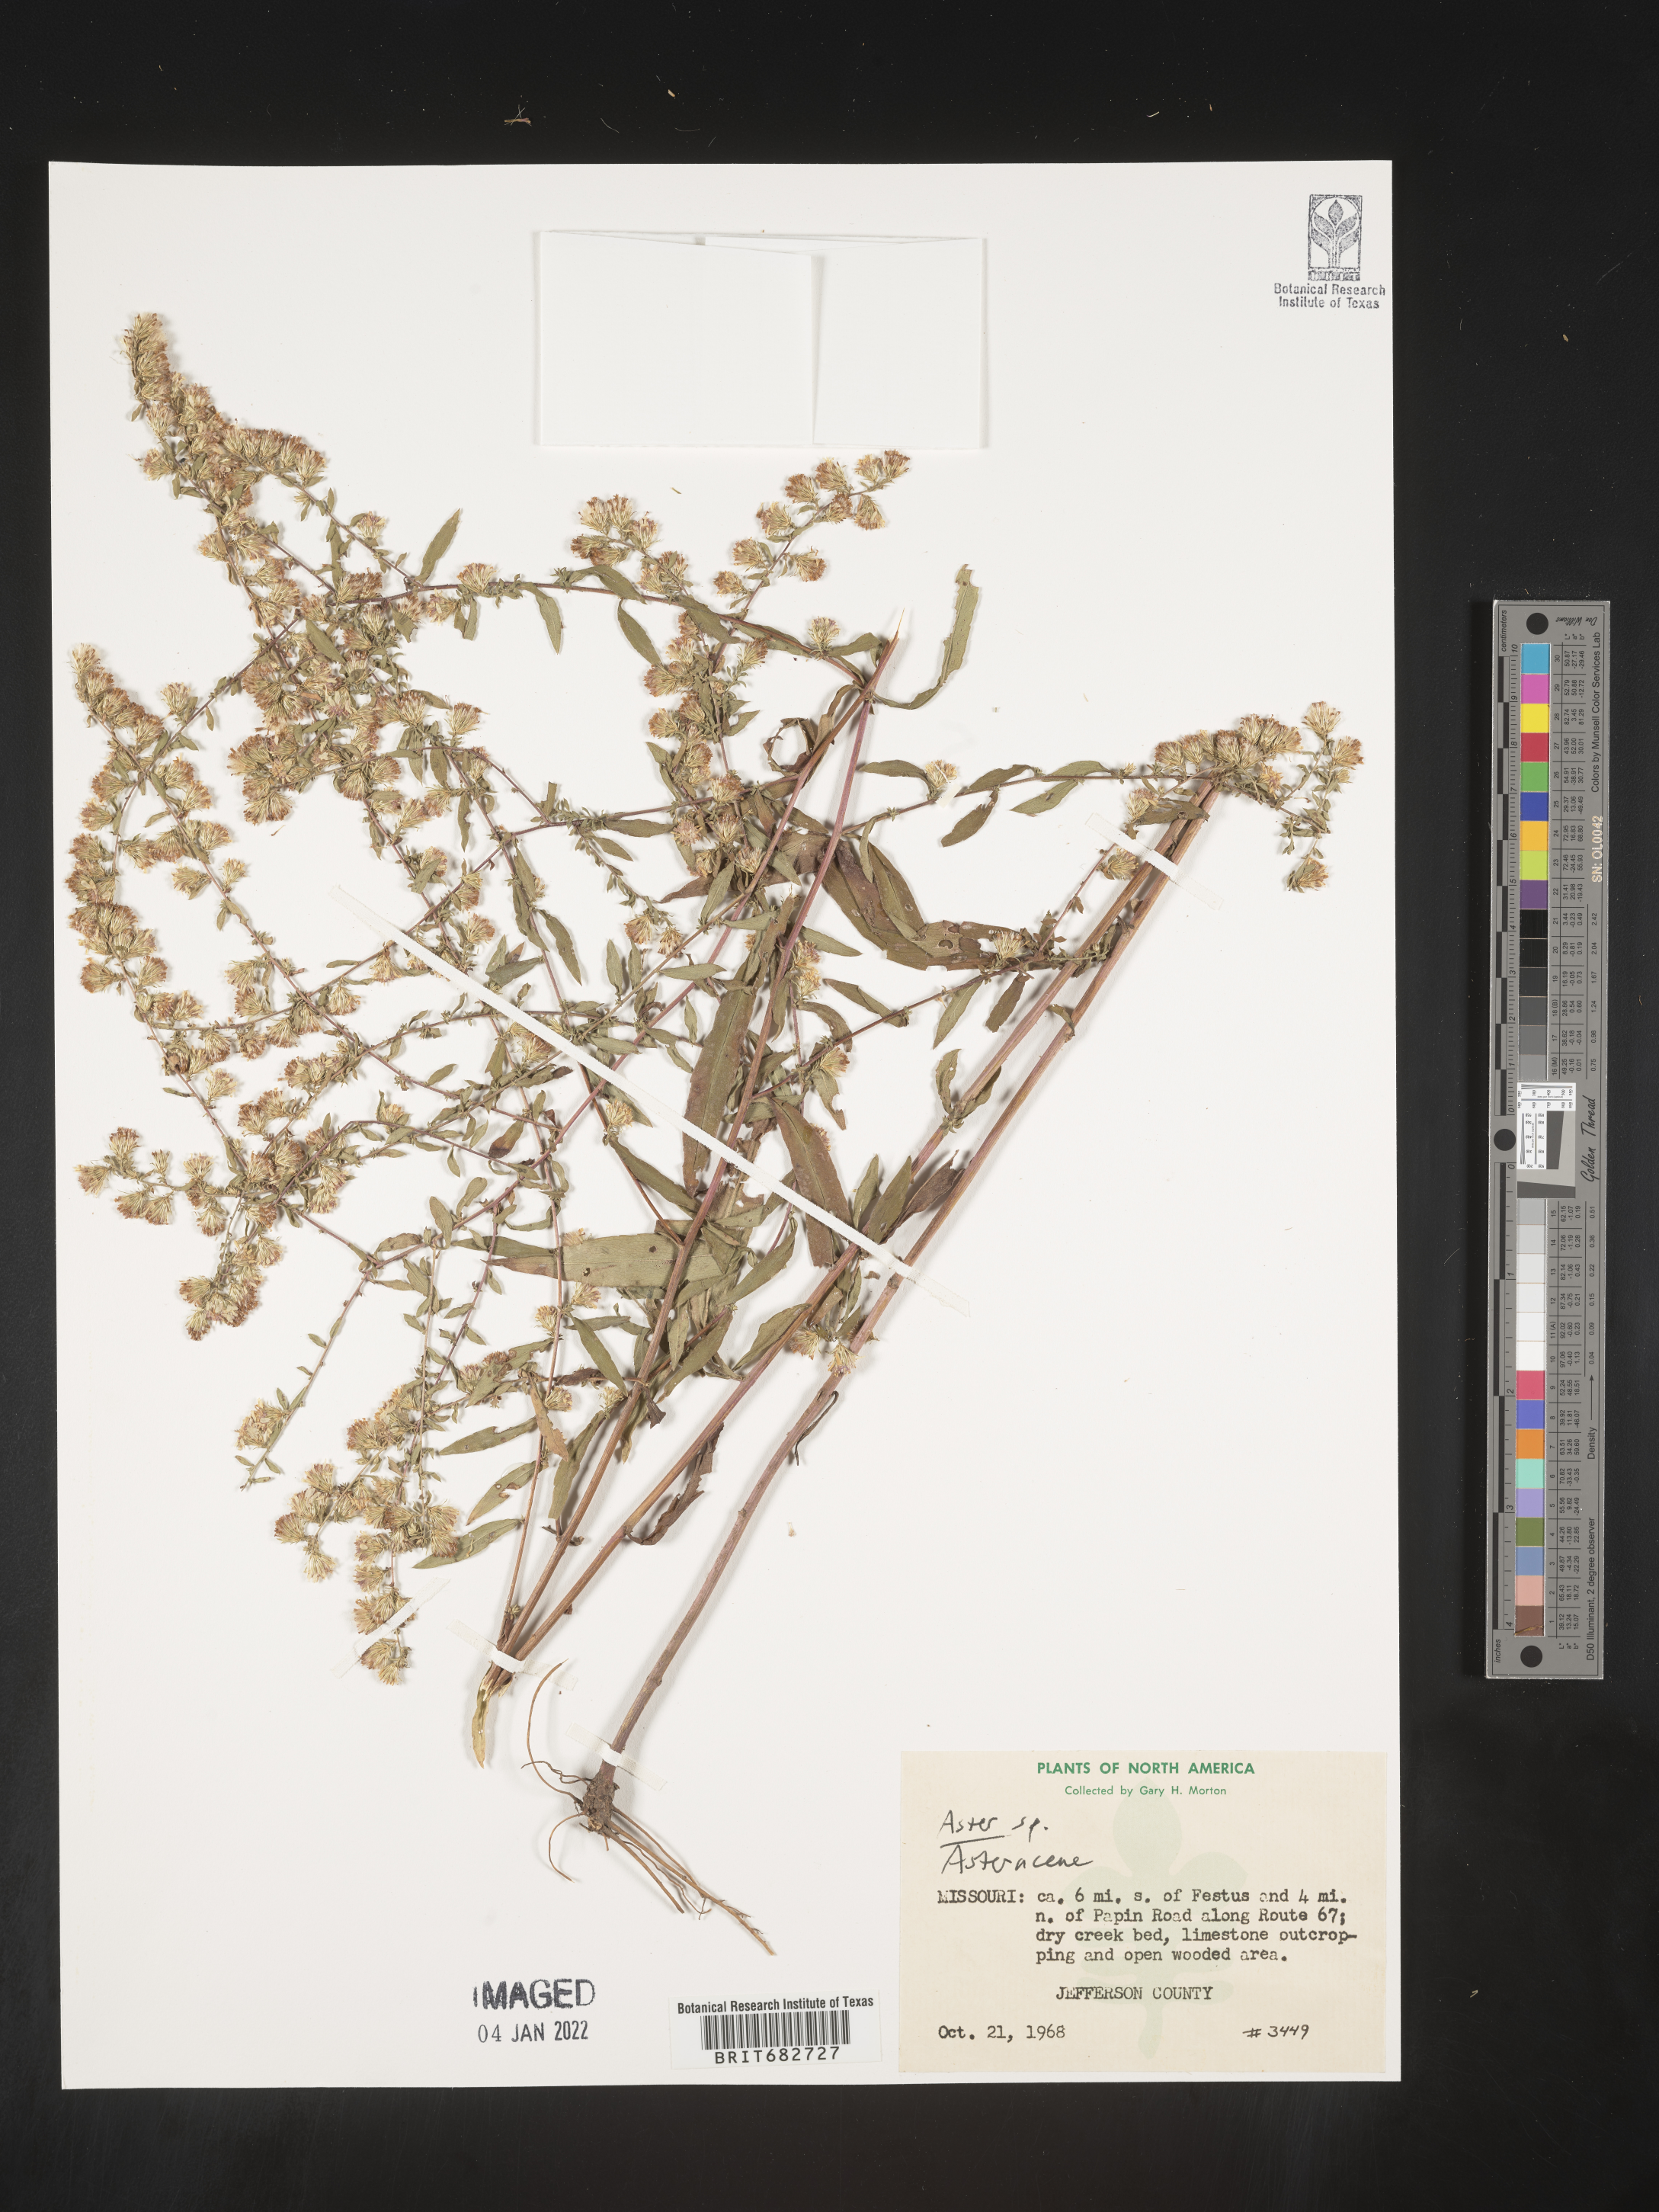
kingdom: Plantae
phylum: Tracheophyta
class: Magnoliopsida
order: Asterales
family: Asteraceae
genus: Aster
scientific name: Aster tataricus
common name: Tatarian aster
